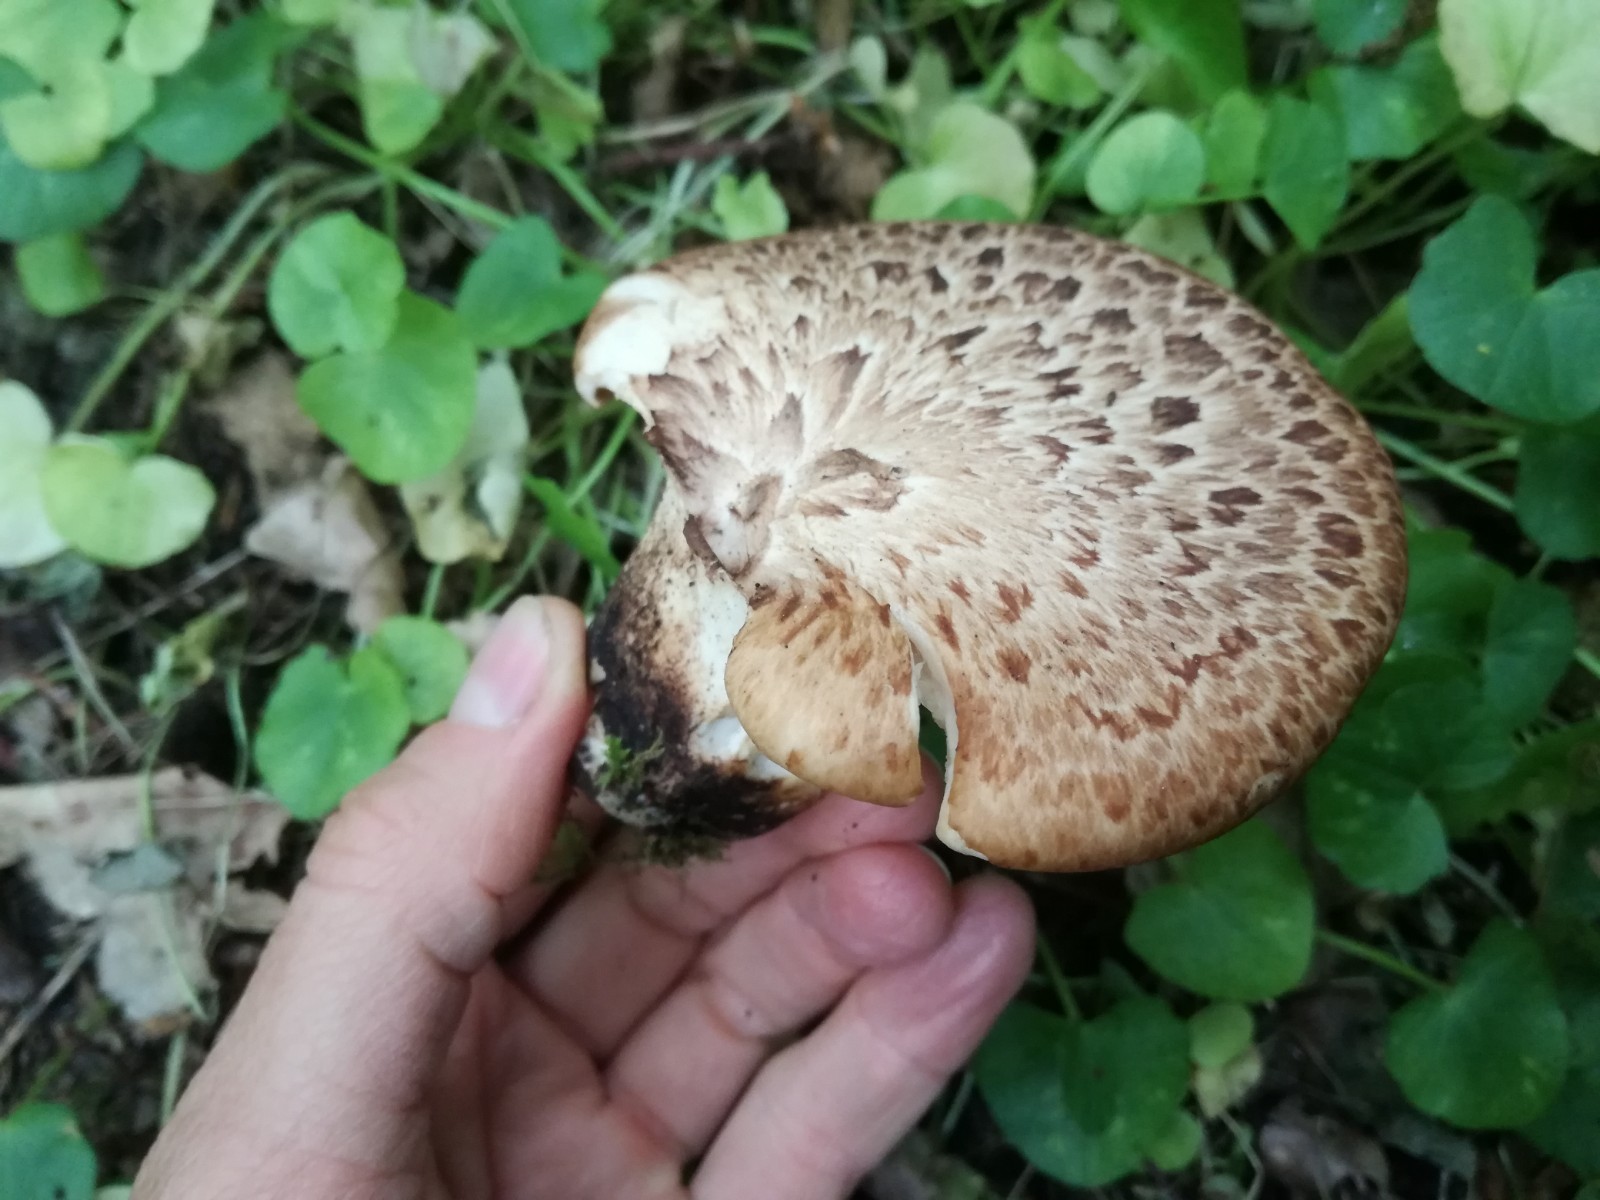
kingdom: Fungi
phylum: Basidiomycota
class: Agaricomycetes
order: Polyporales
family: Polyporaceae
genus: Cerioporus
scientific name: Cerioporus squamosus
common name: skællet stilkporesvamp
